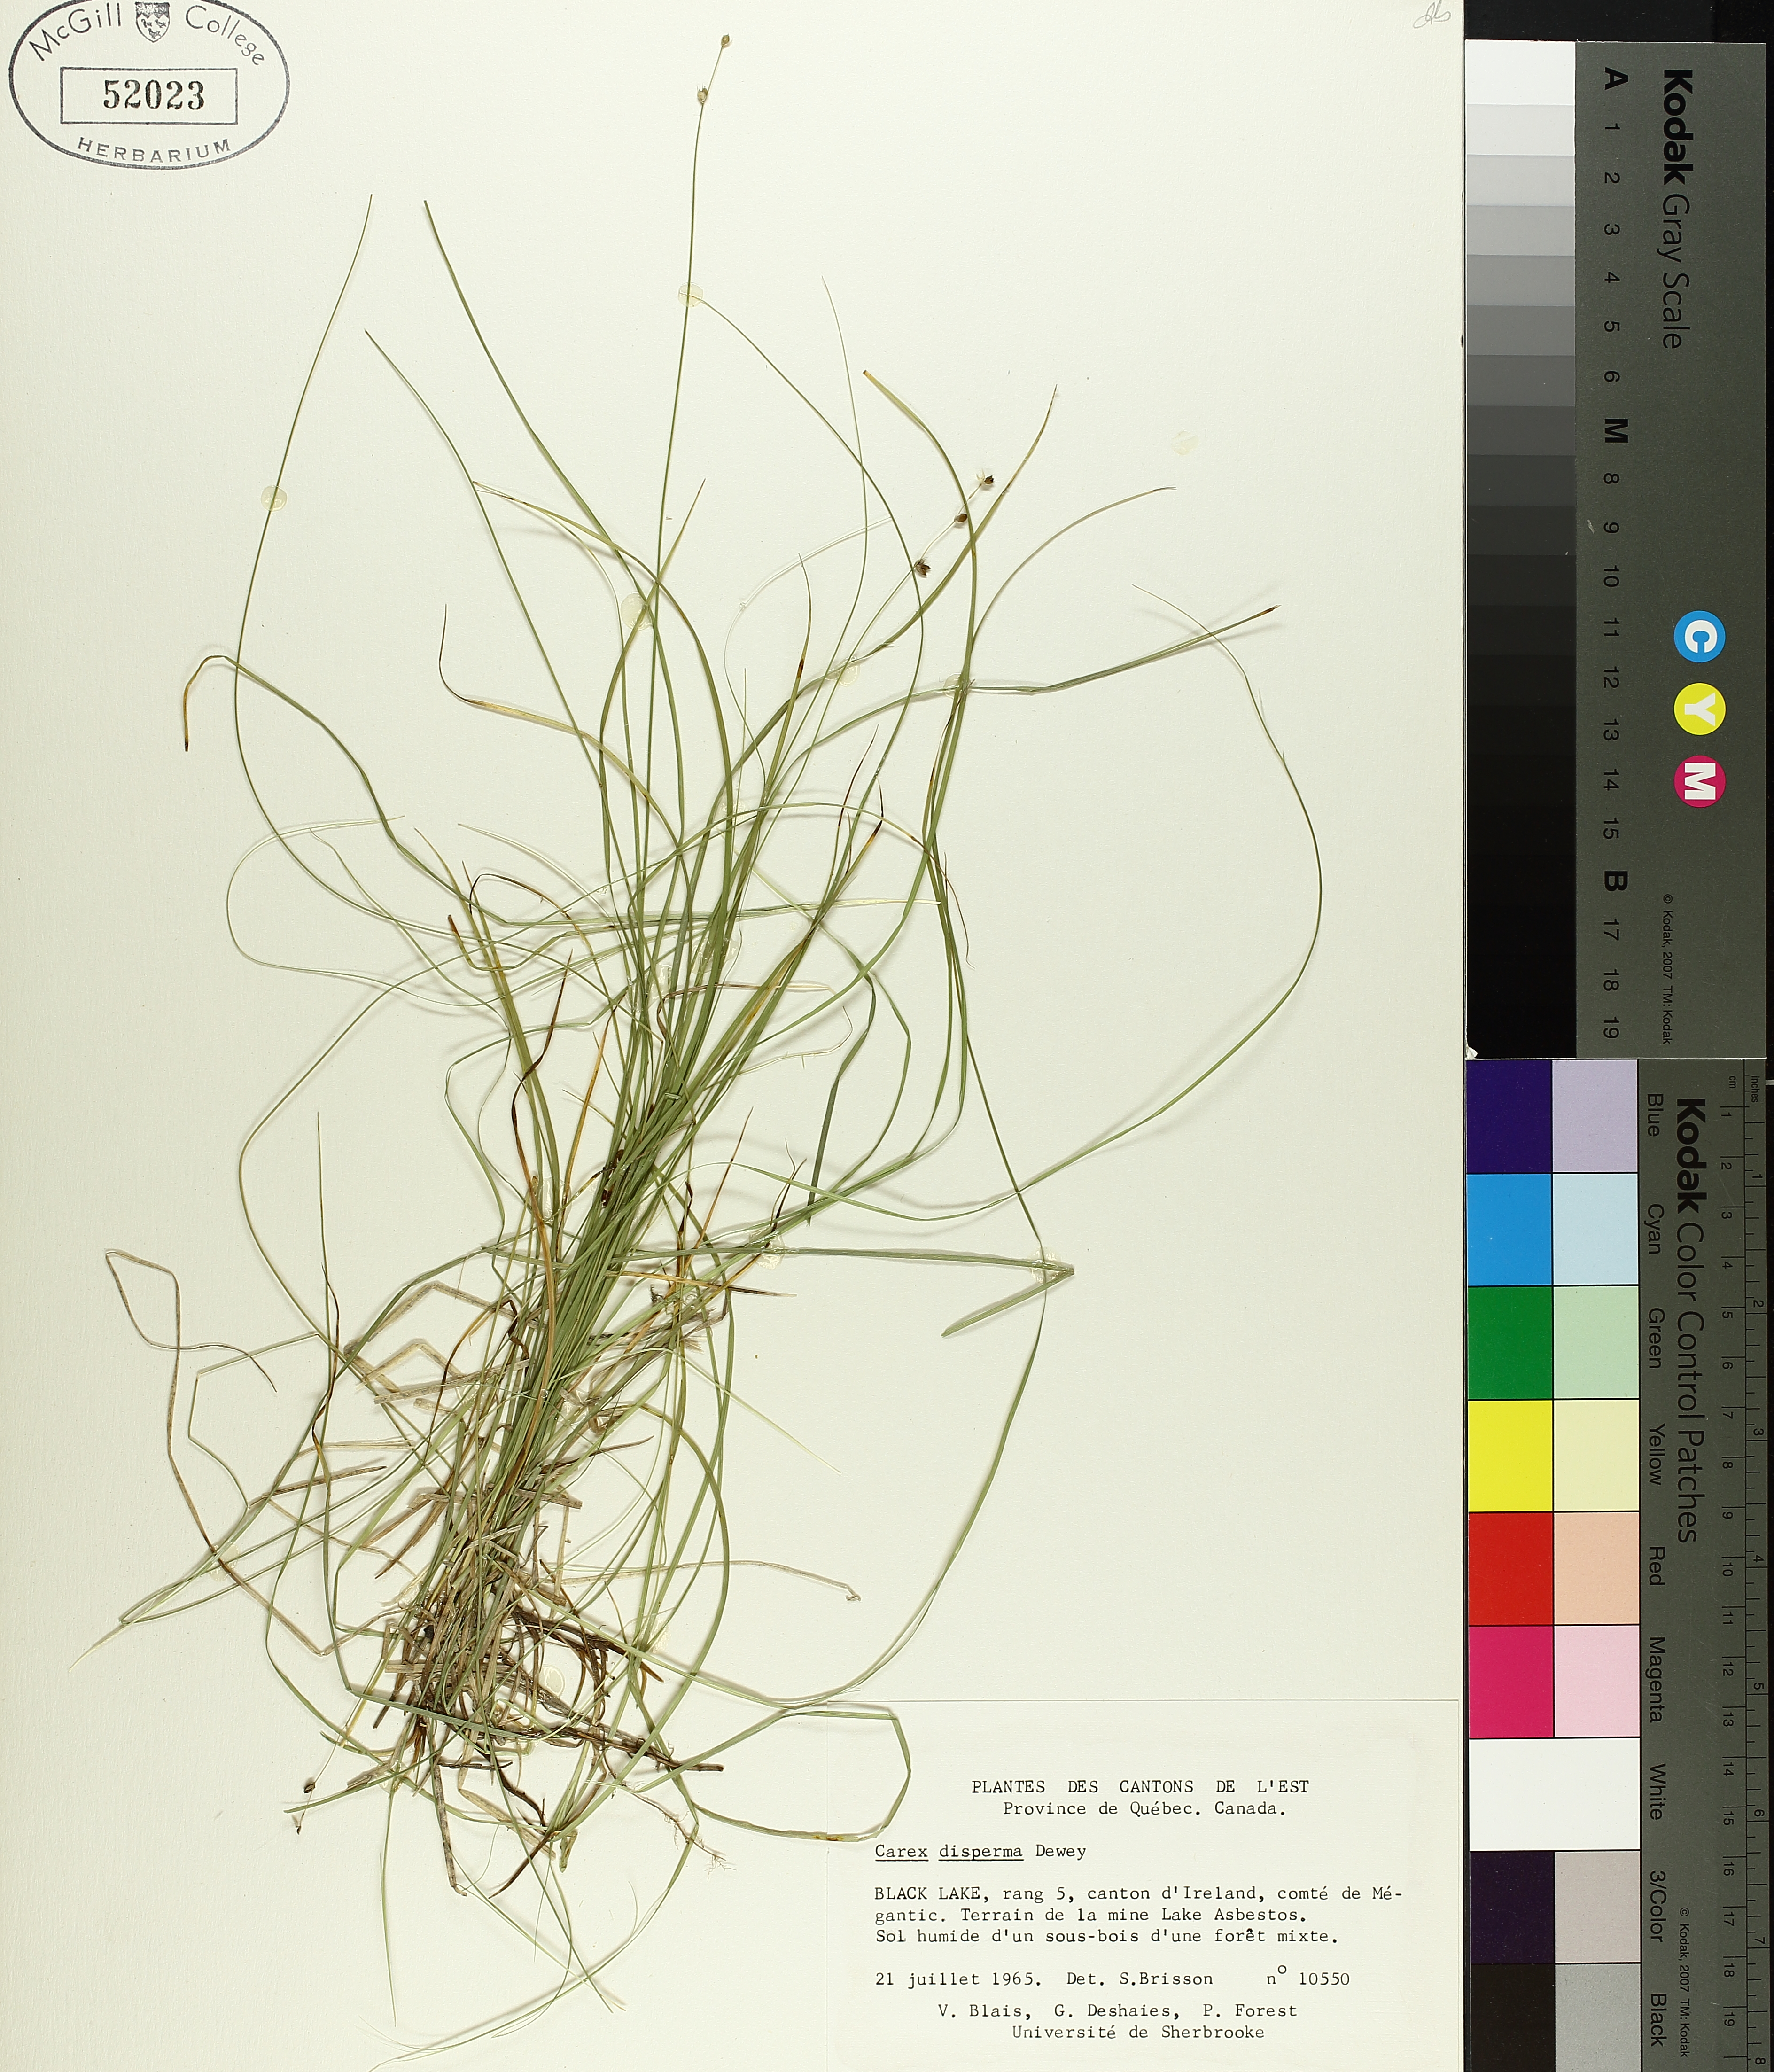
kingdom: Plantae
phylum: Tracheophyta
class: Liliopsida
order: Poales
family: Cyperaceae
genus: Carex
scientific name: Carex disperma
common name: Short-leaved sedge
